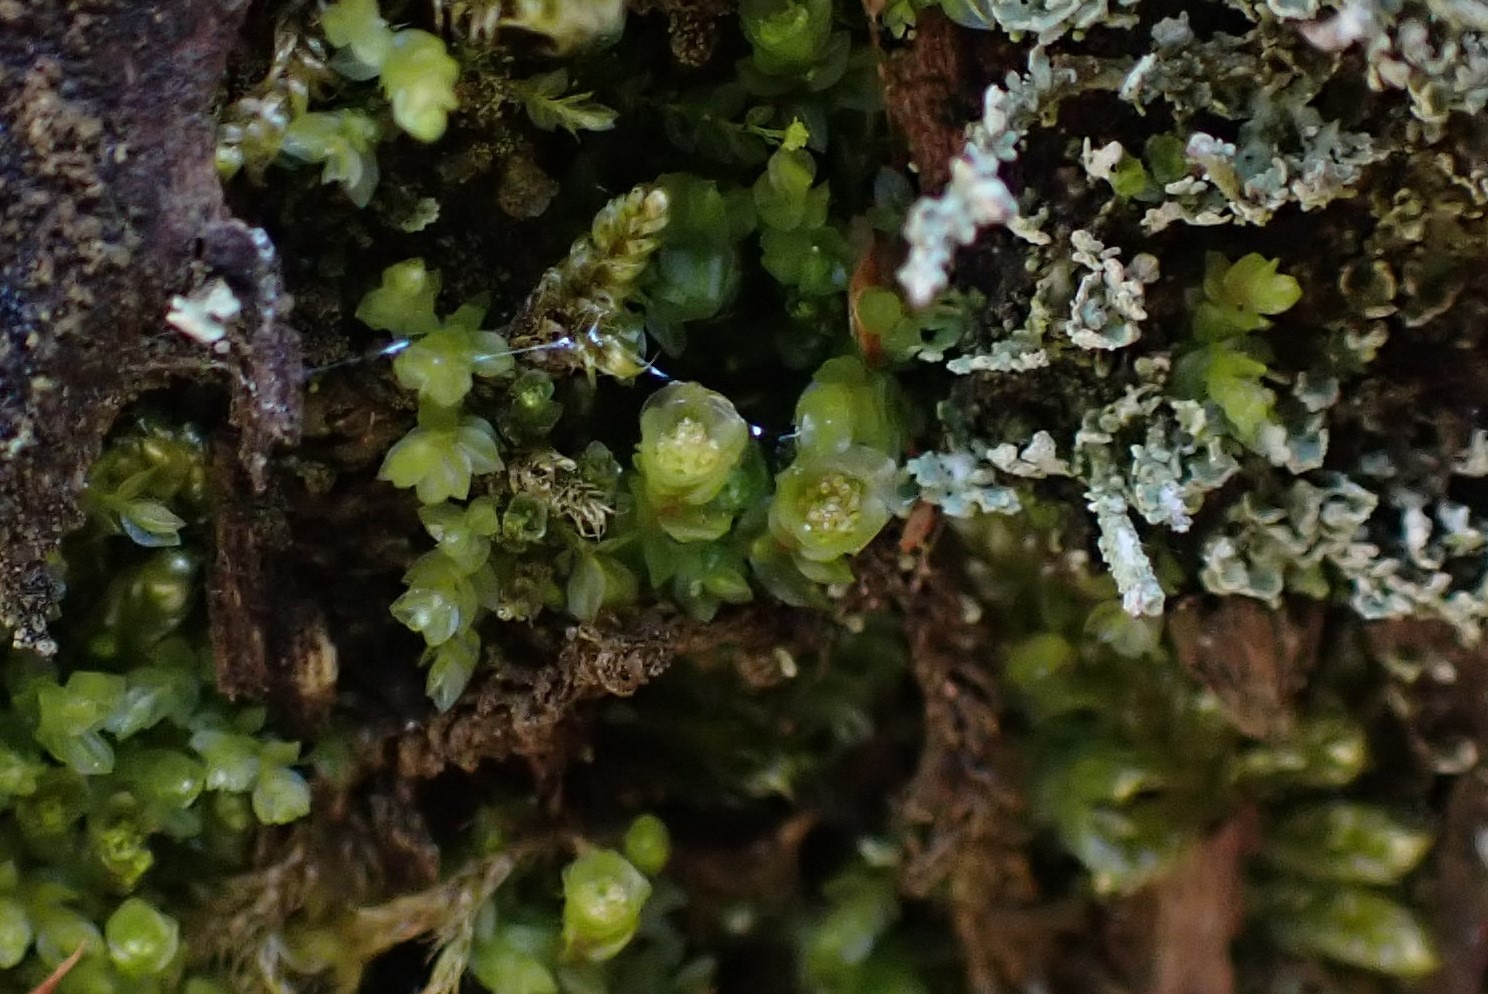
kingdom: Plantae
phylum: Bryophyta
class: Polytrichopsida
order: Tetraphidales
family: Tetraphidaceae
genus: Tetraphis
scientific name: Tetraphis pellucida
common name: Almindelig firtand
